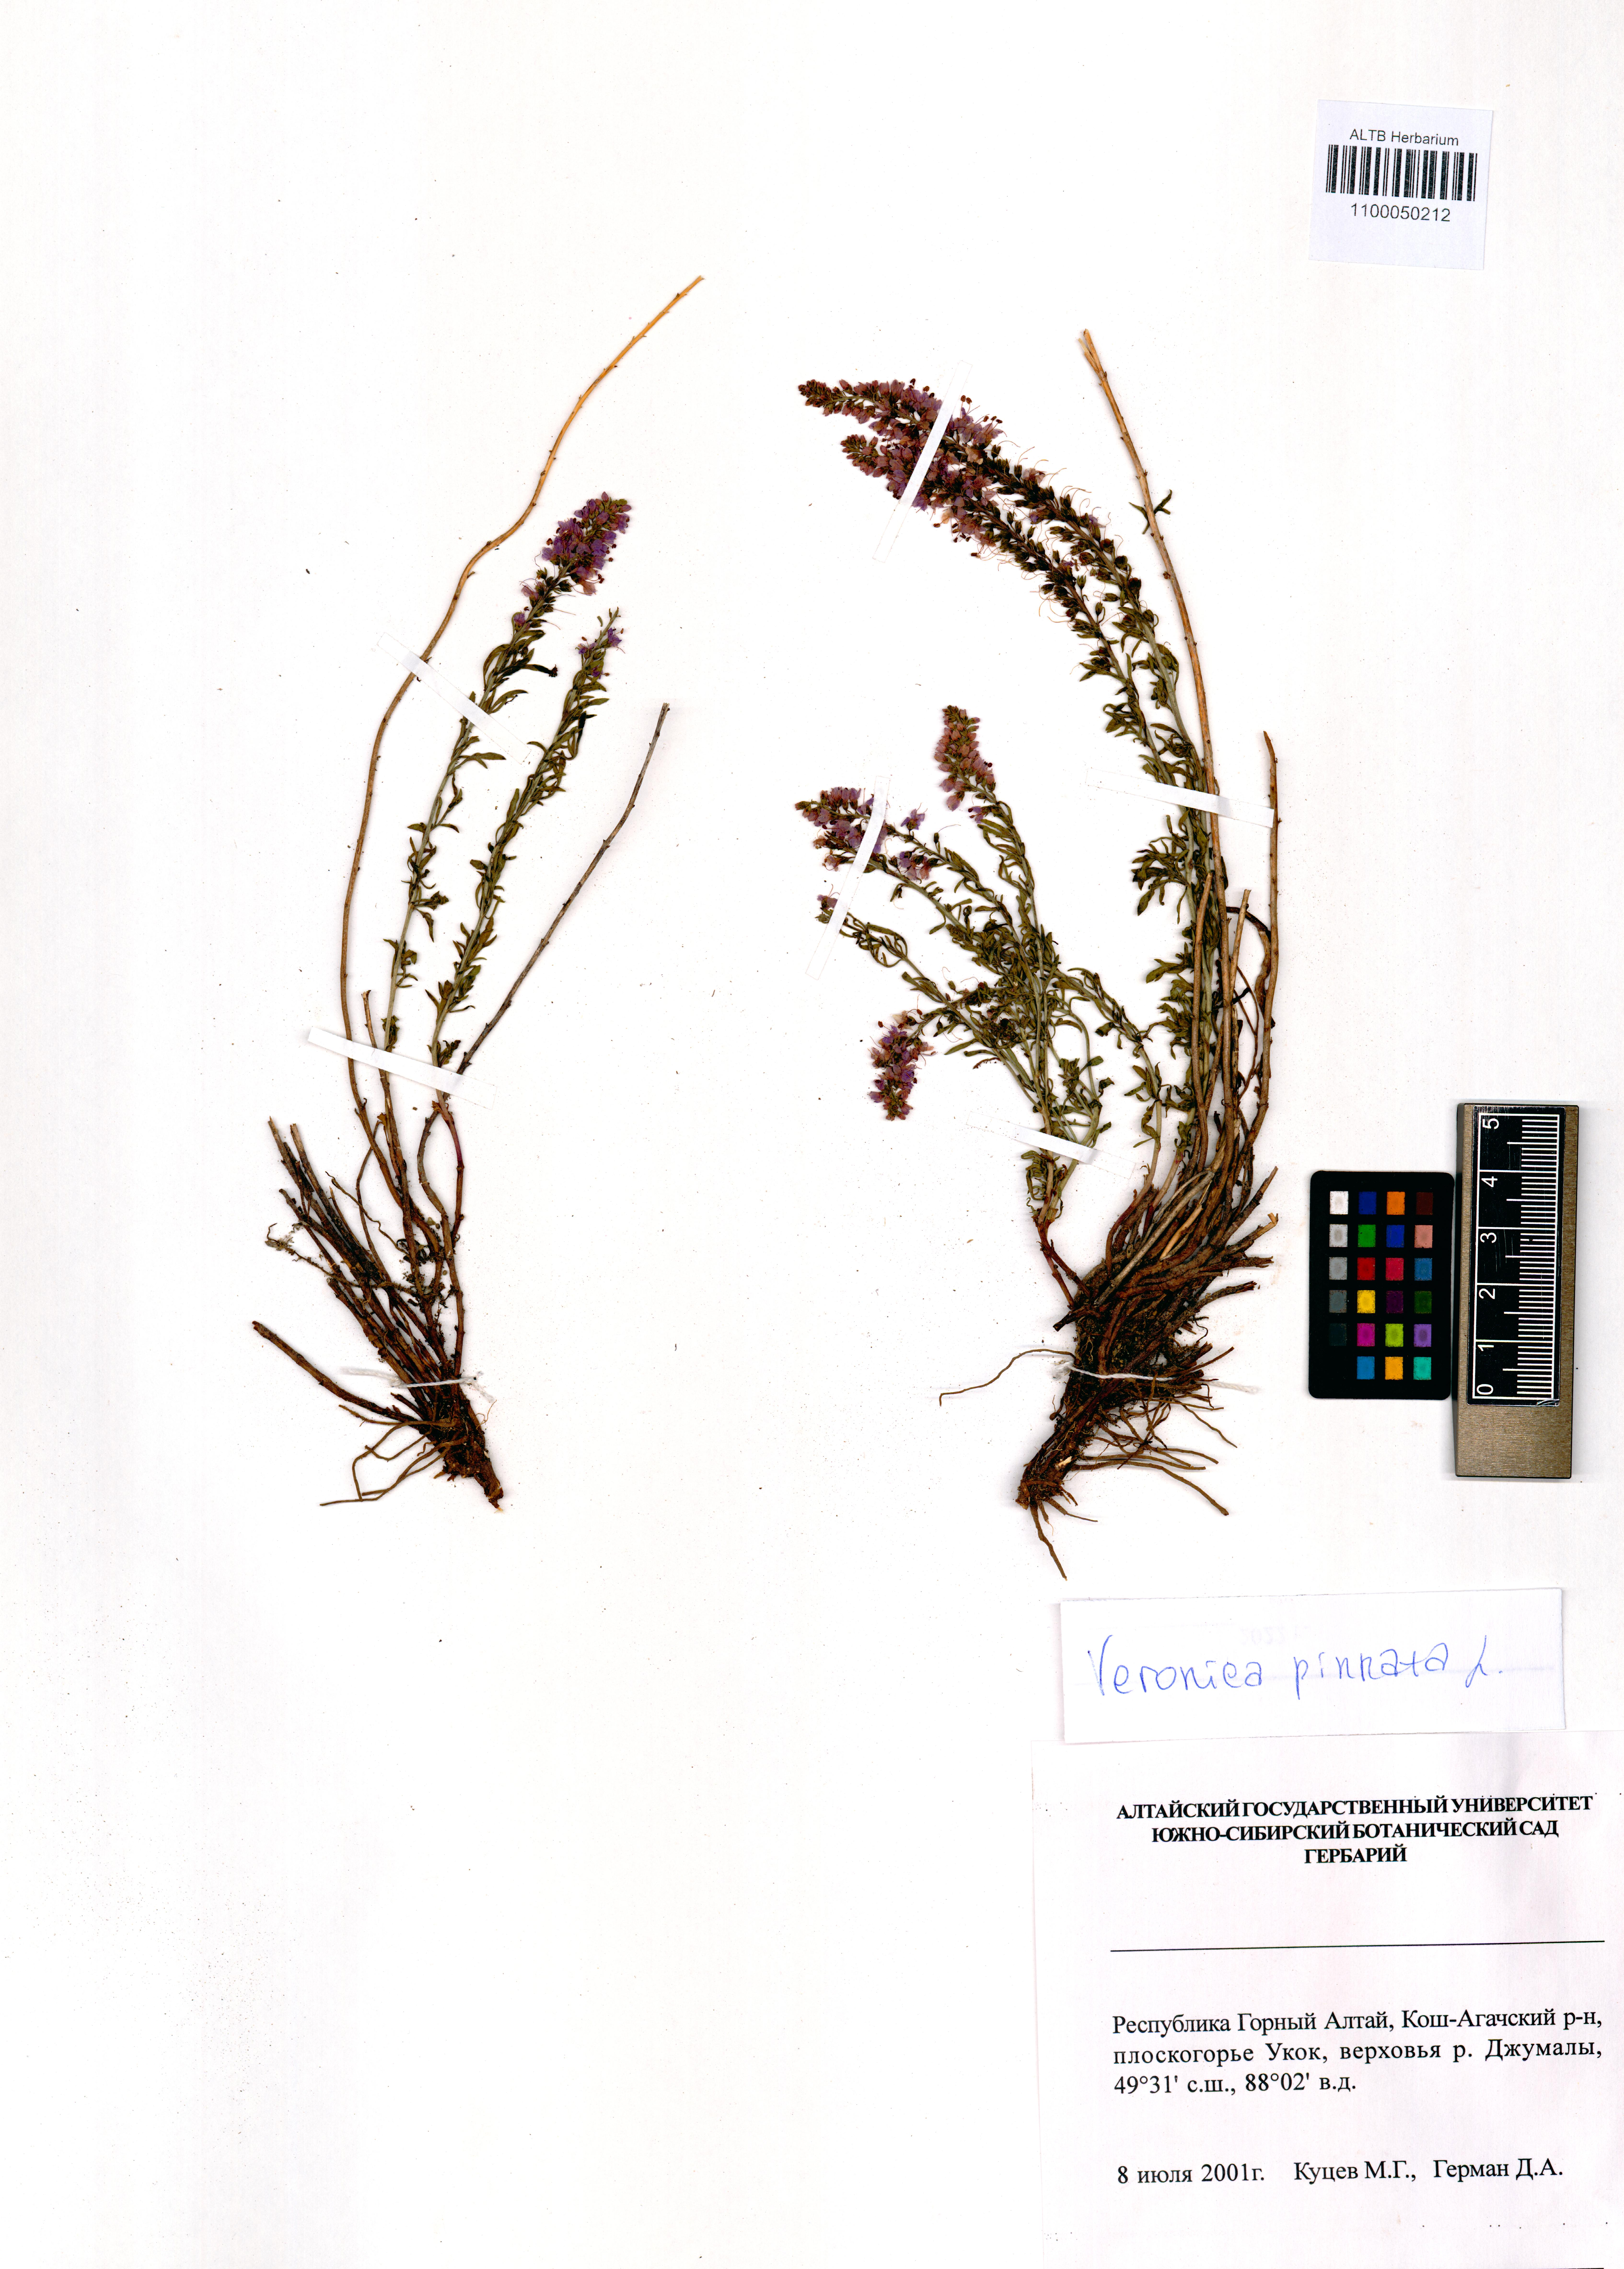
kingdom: Plantae
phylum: Tracheophyta
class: Magnoliopsida
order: Lamiales
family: Plantaginaceae
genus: Veronica
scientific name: Veronica pinnata
